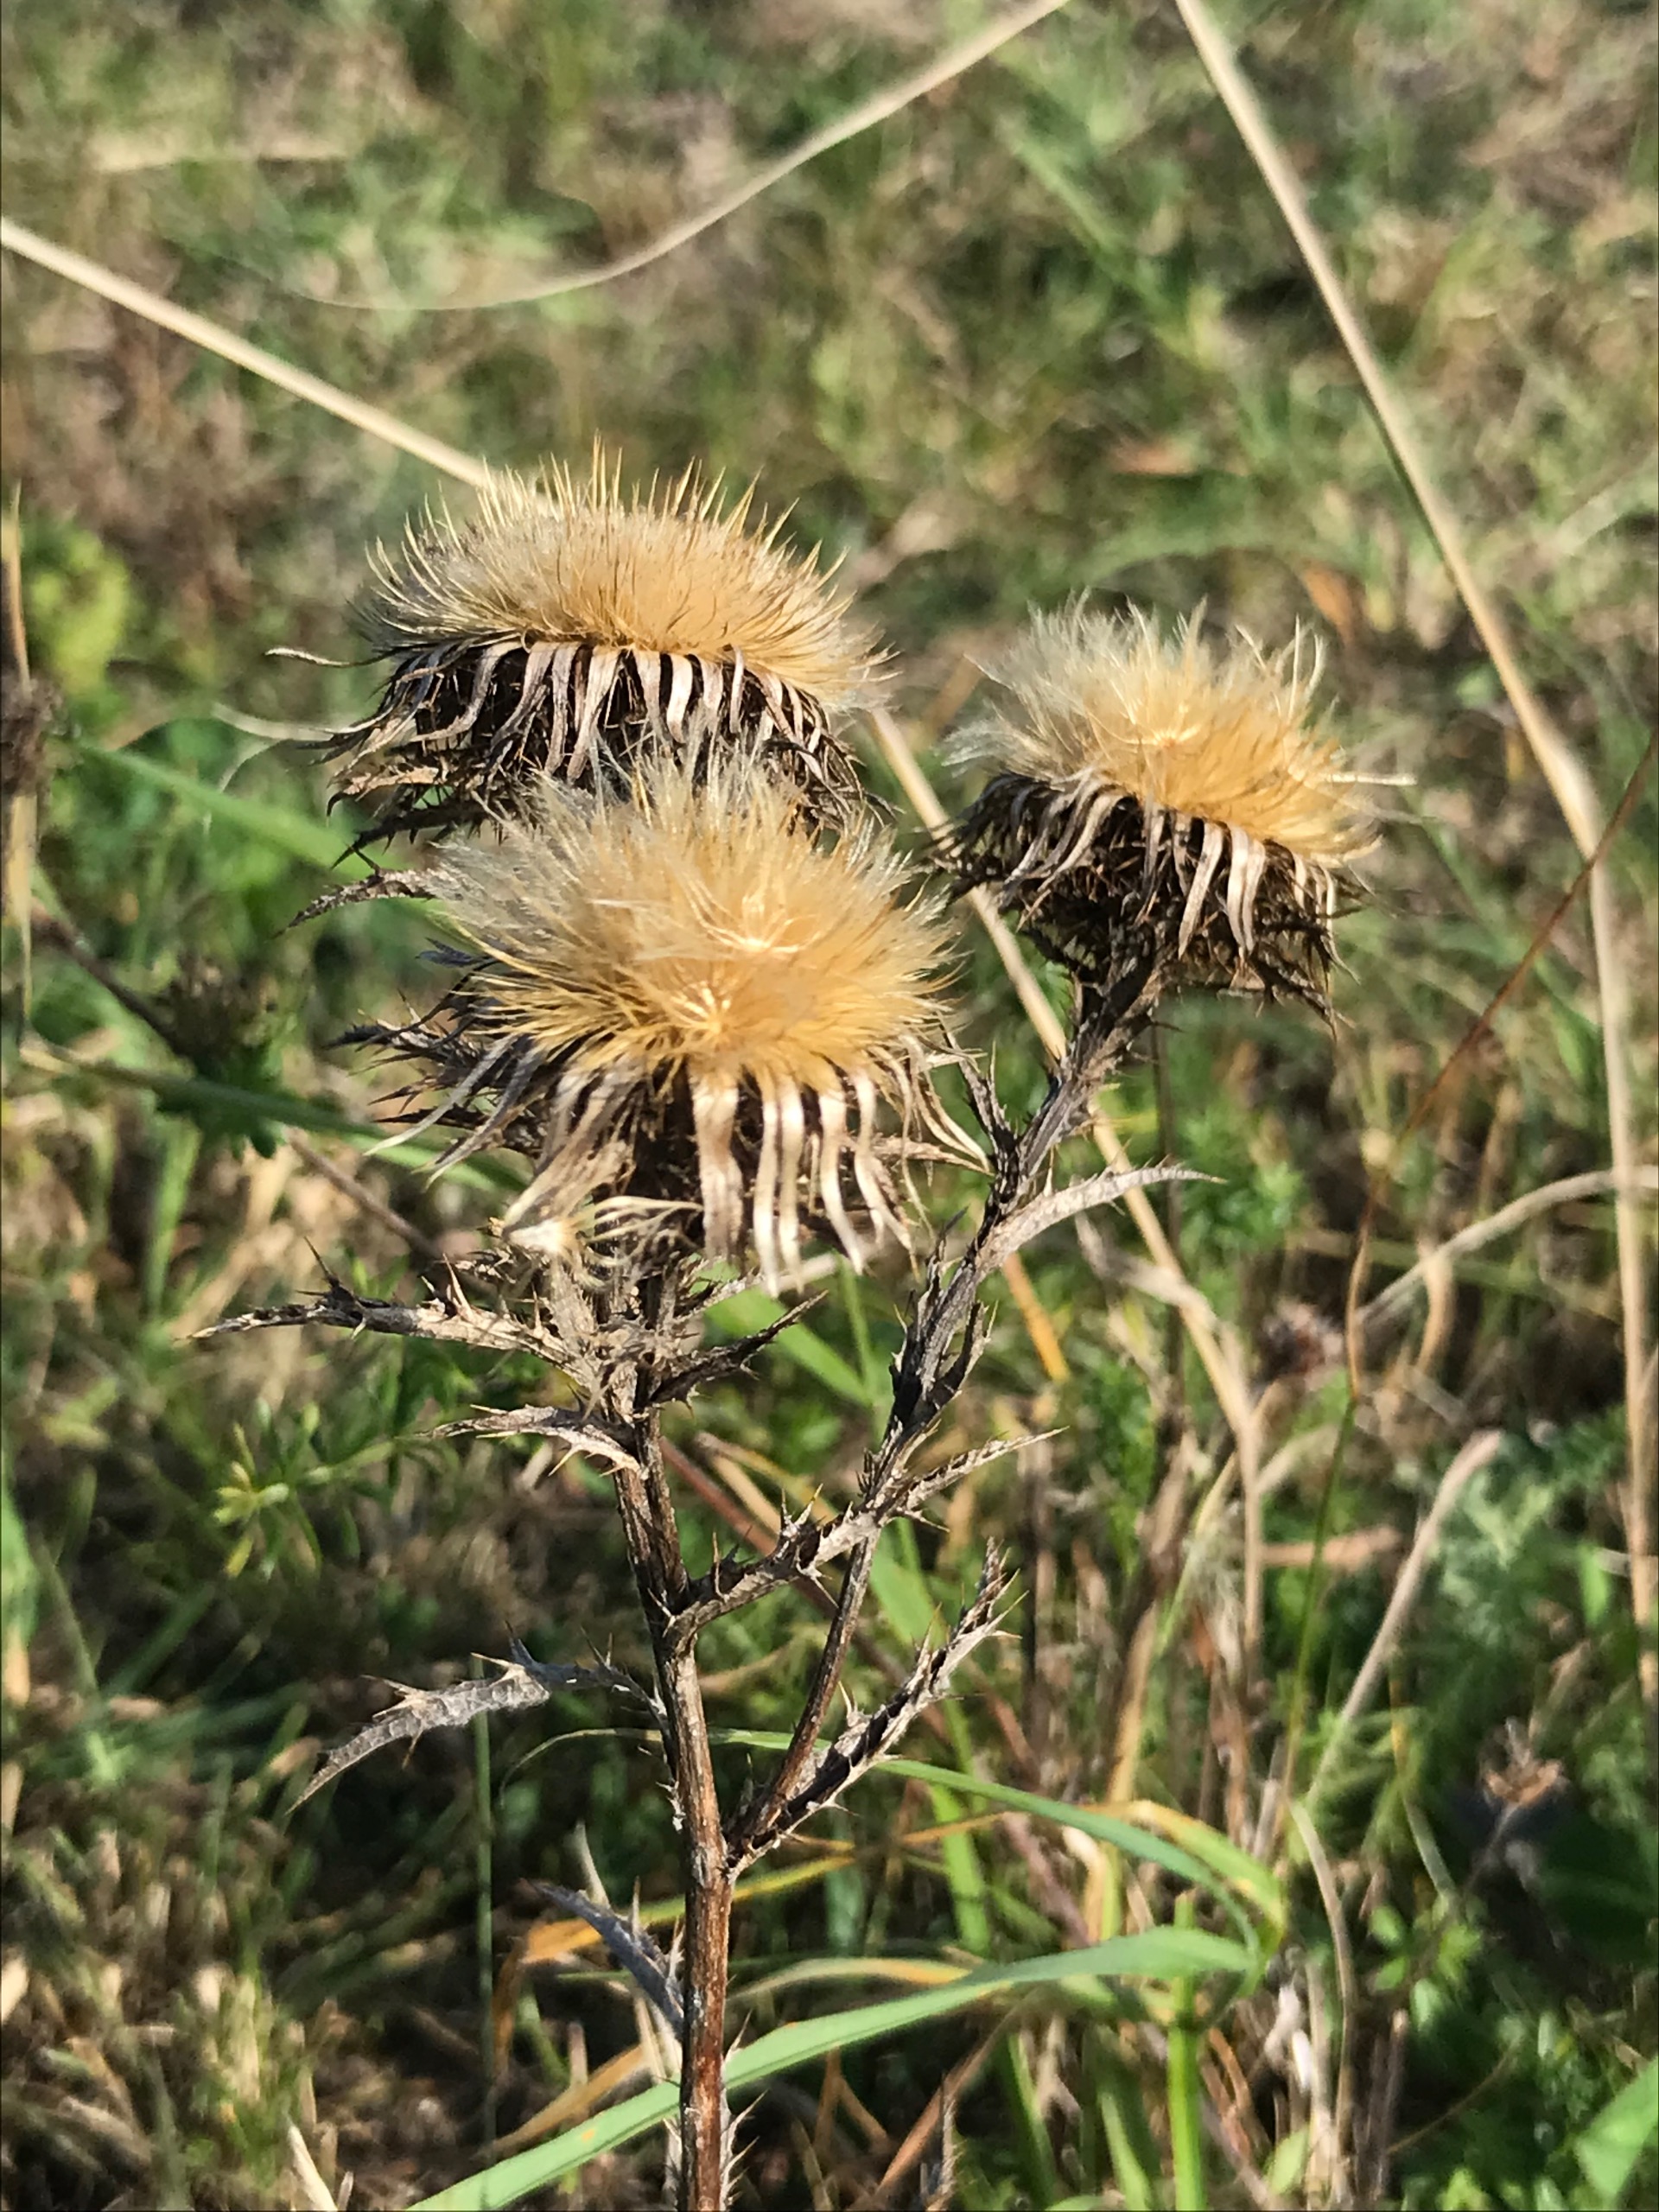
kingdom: Plantae
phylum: Tracheophyta
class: Magnoliopsida
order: Asterales
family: Asteraceae
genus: Carlina
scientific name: Carlina vulgaris
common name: Bakketidsel
